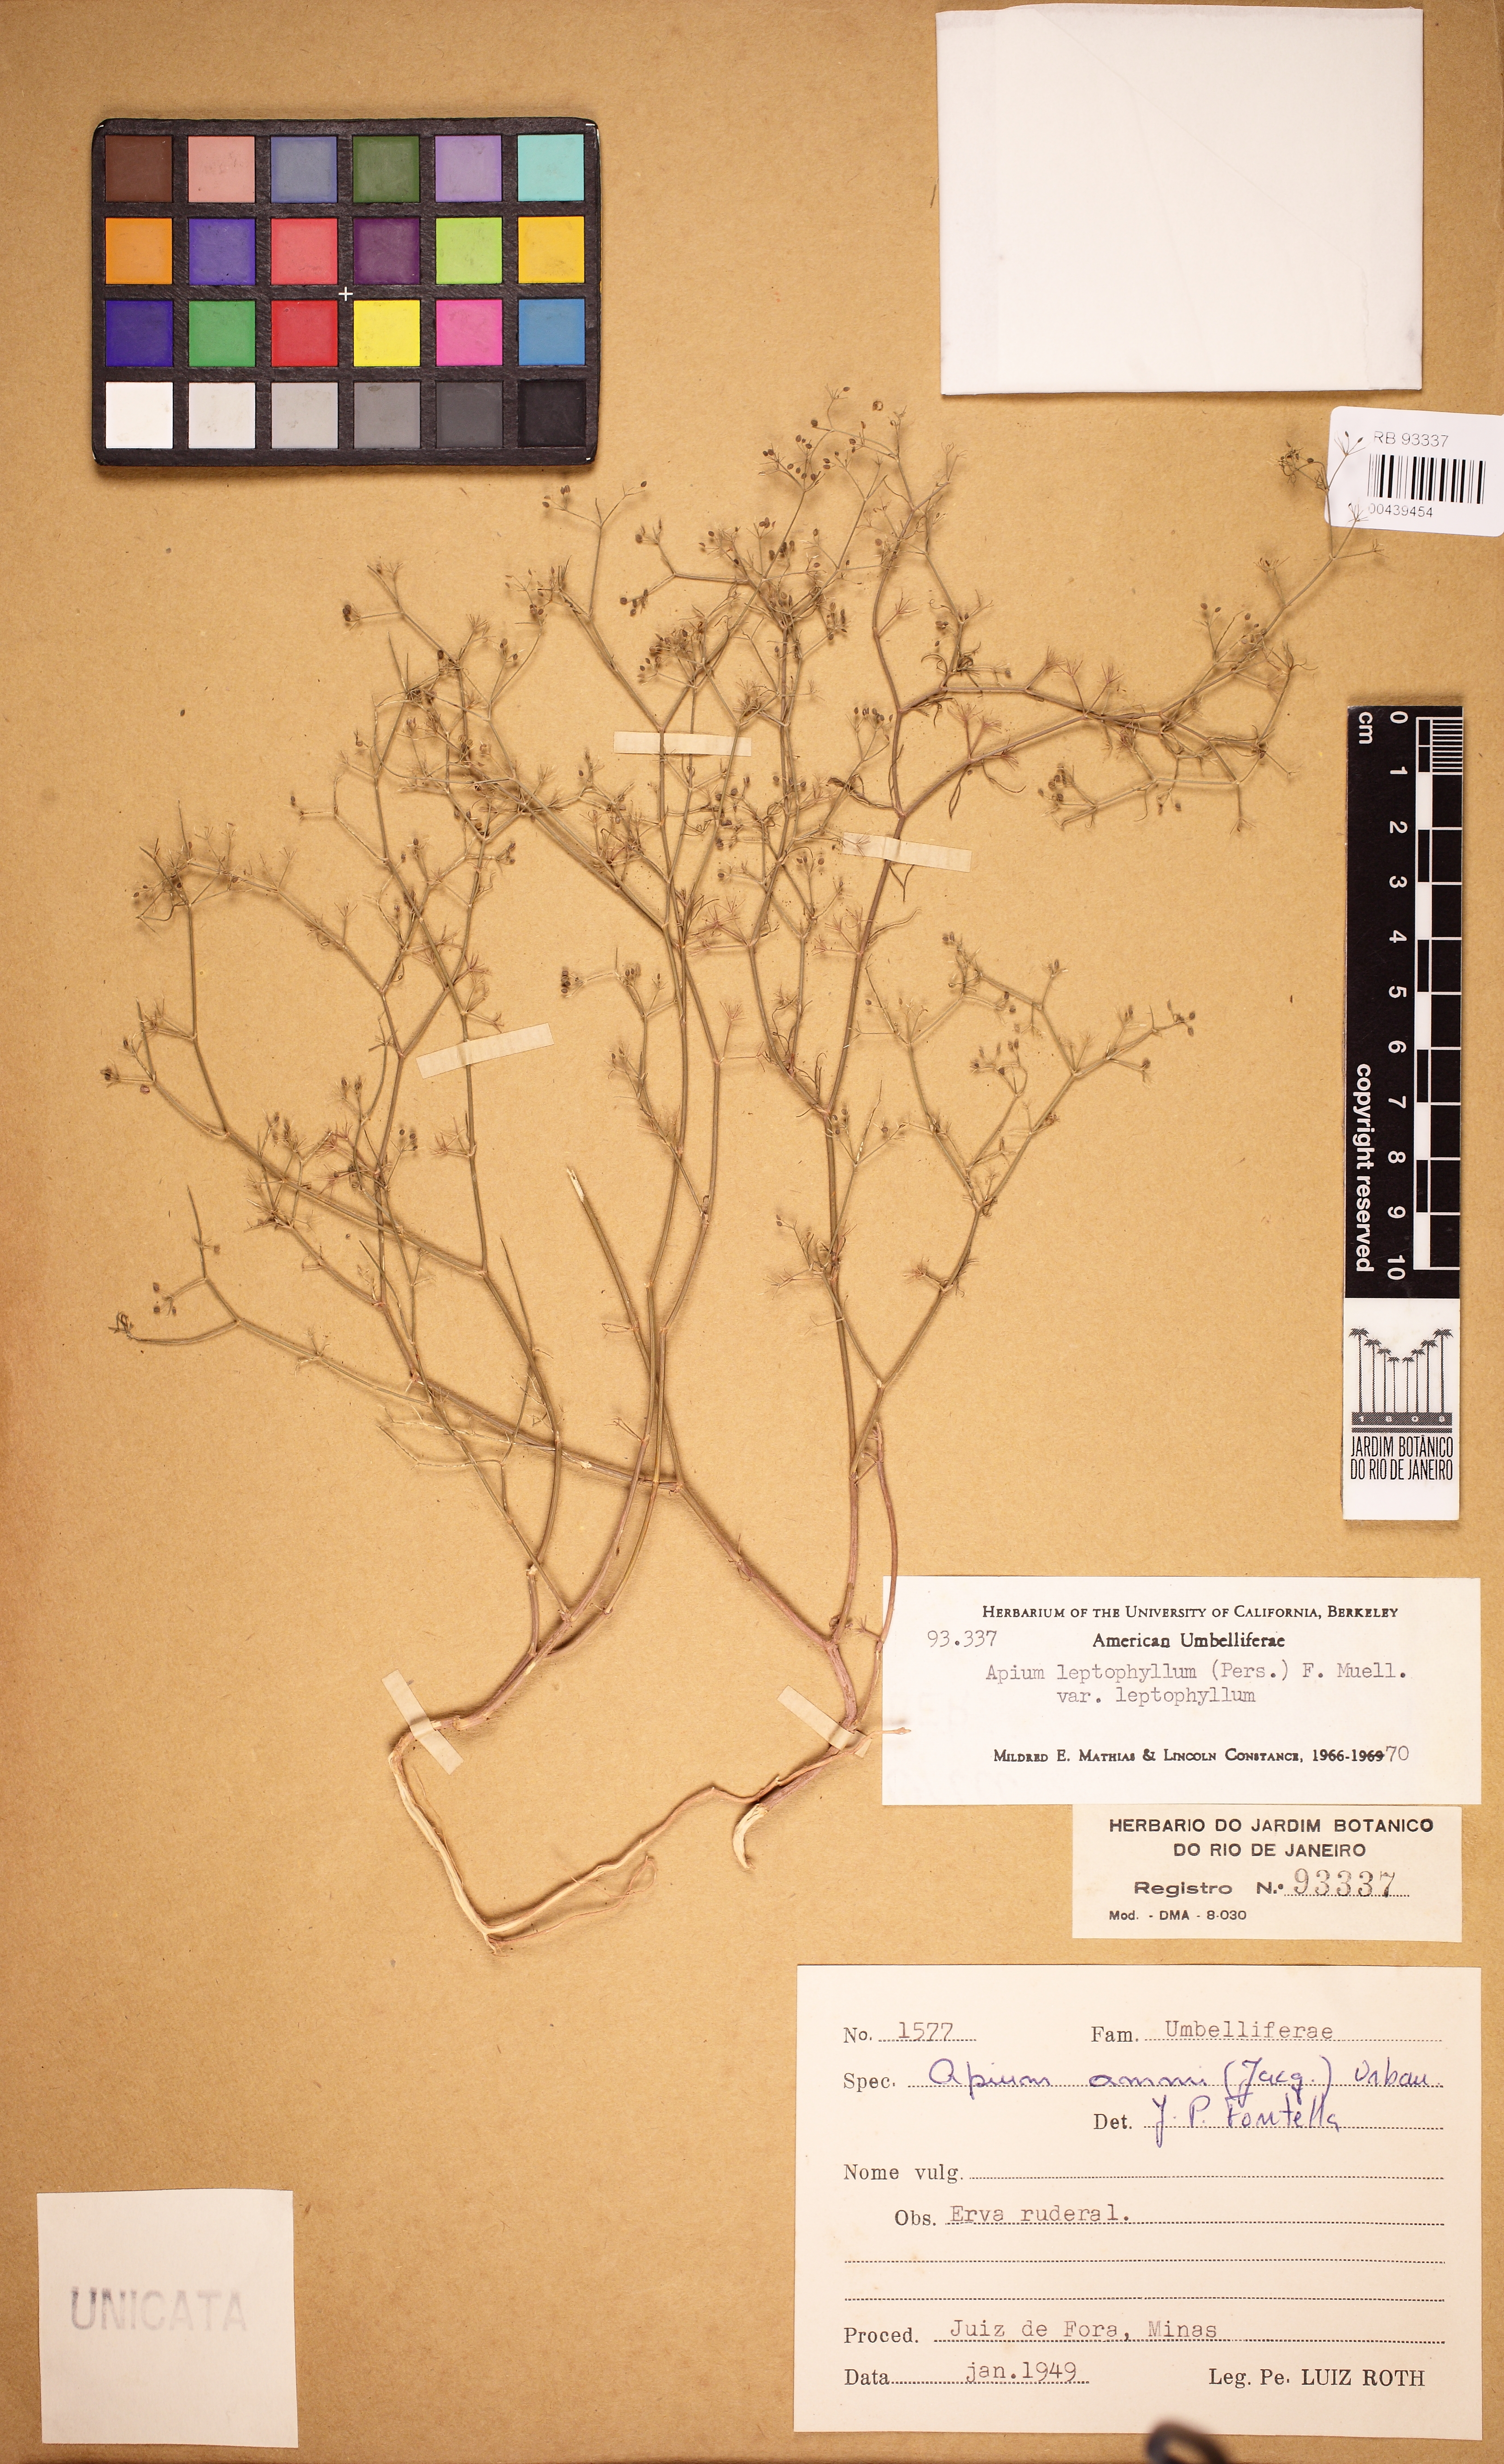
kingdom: Plantae
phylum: Tracheophyta
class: Magnoliopsida
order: Apiales
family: Apiaceae
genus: Cyclospermum
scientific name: Cyclospermum leptophyllum
